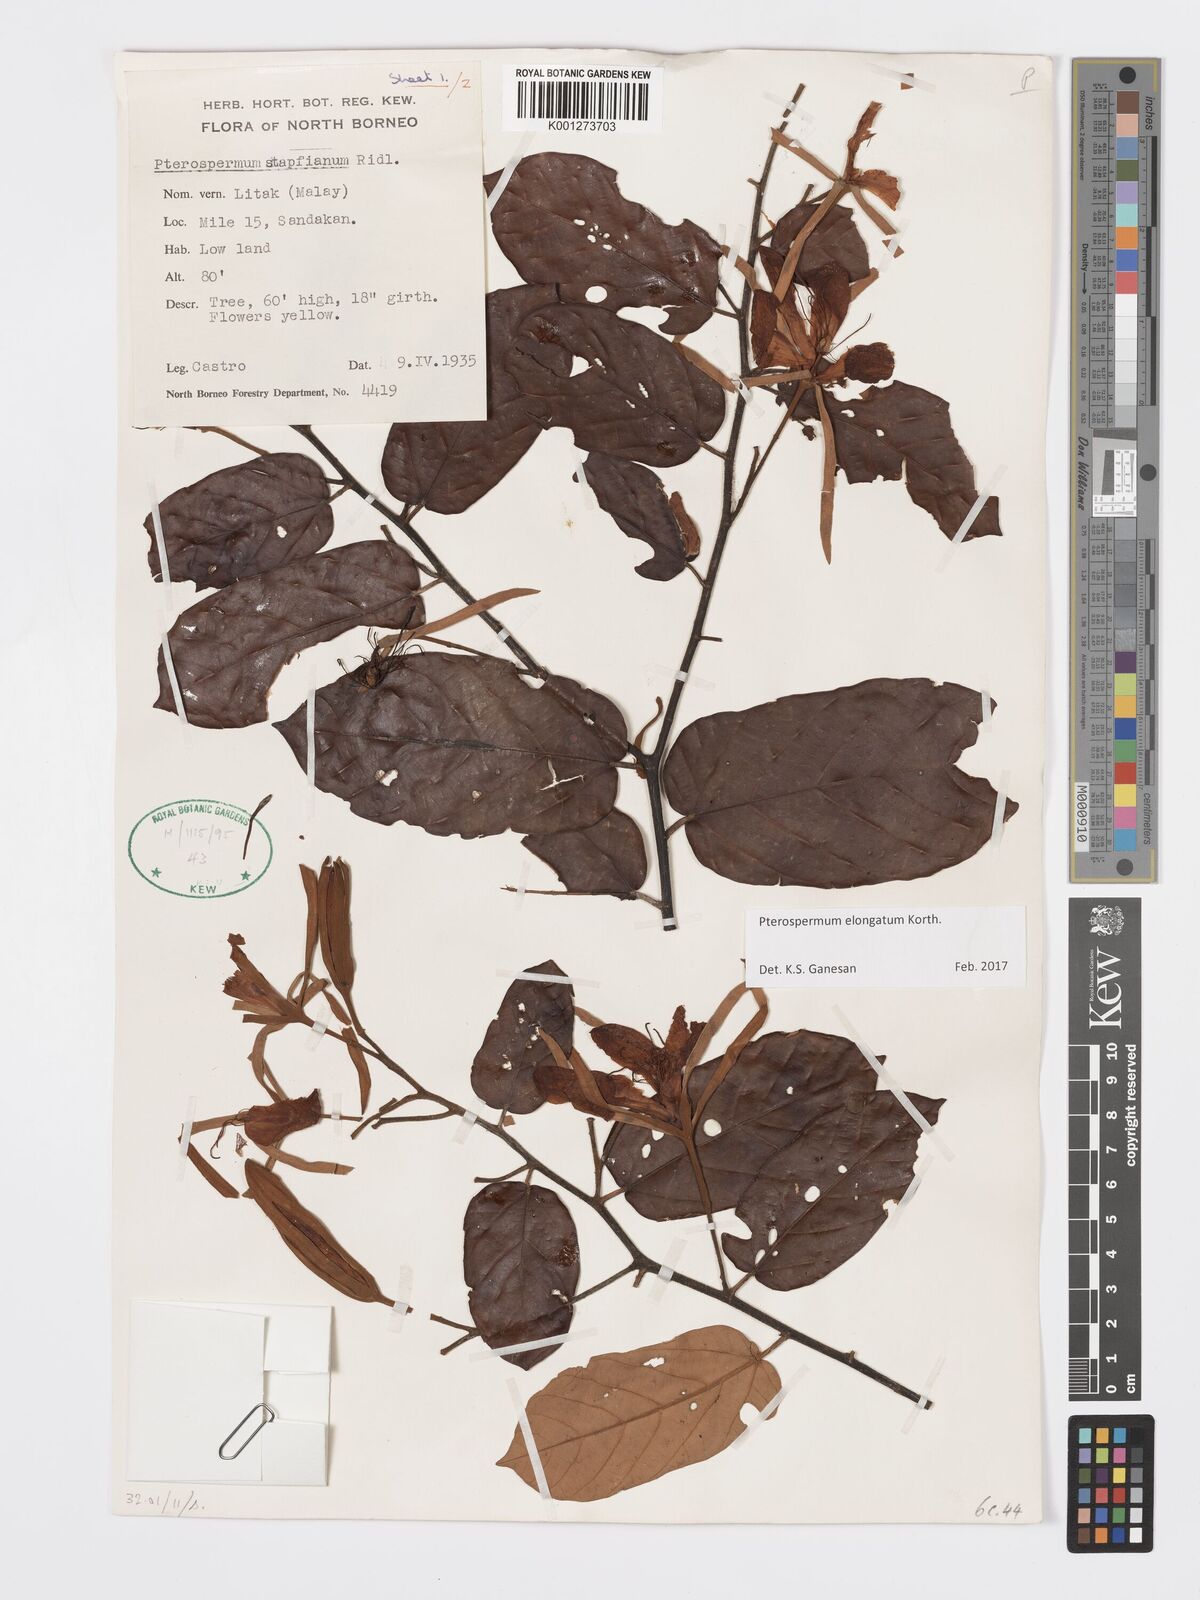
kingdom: Plantae
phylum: Tracheophyta
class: Magnoliopsida
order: Malvales
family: Malvaceae
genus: Pterospermum
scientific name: Pterospermum elongatum
